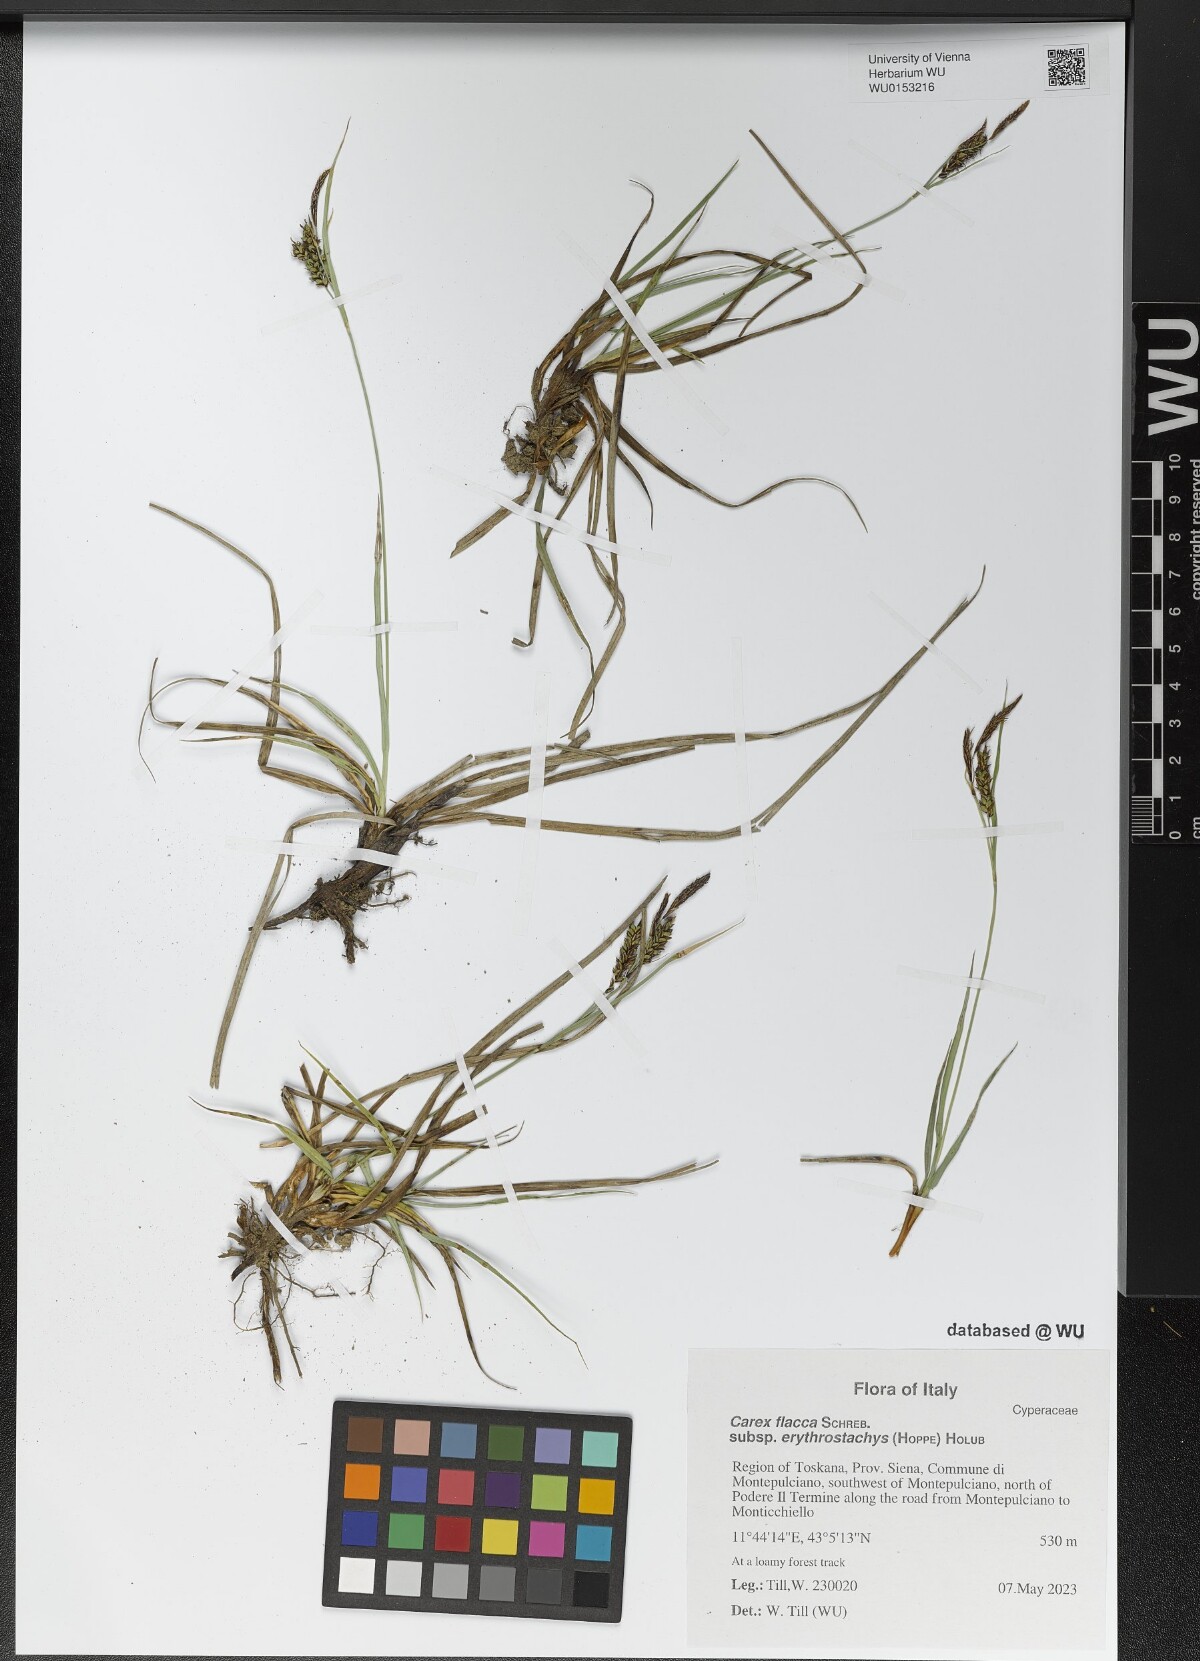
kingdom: Plantae
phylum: Tracheophyta
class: Liliopsida
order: Poales
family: Cyperaceae
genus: Carex
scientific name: Carex flacca
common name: Glaucous sedge
